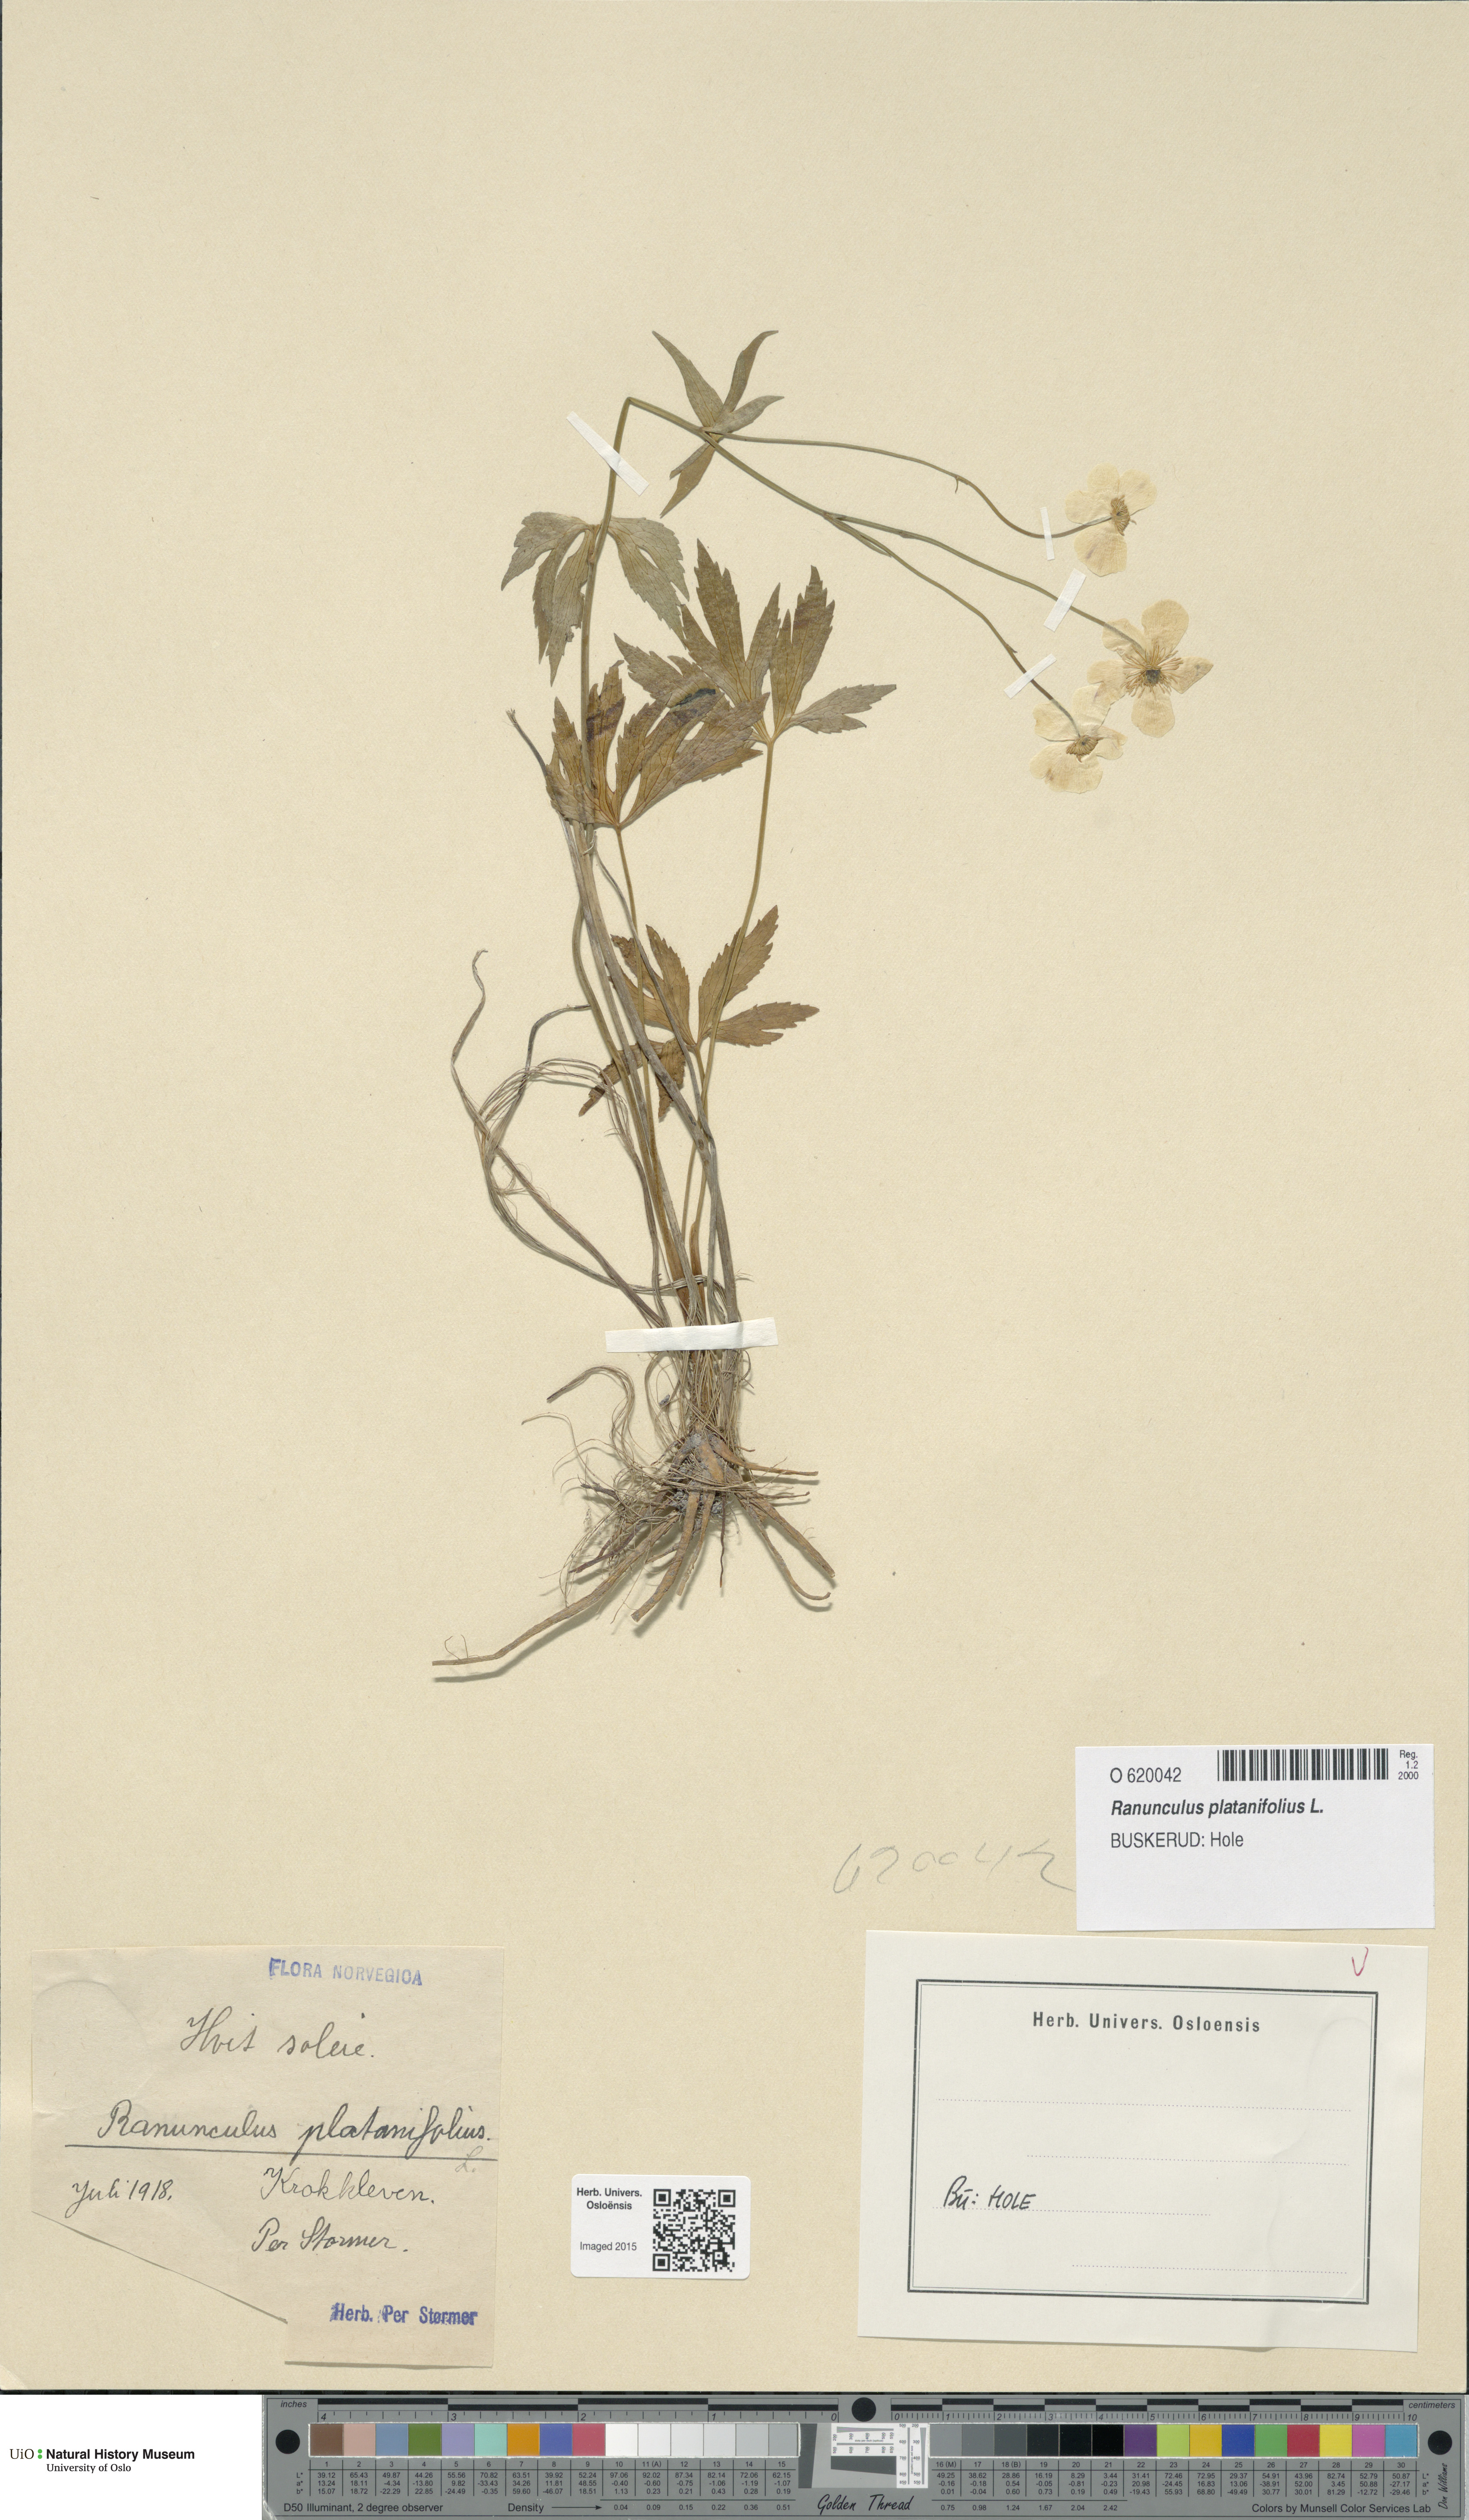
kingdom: Plantae
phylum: Tracheophyta
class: Magnoliopsida
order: Ranunculales
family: Ranunculaceae
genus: Ranunculus
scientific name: Ranunculus platanifolius
